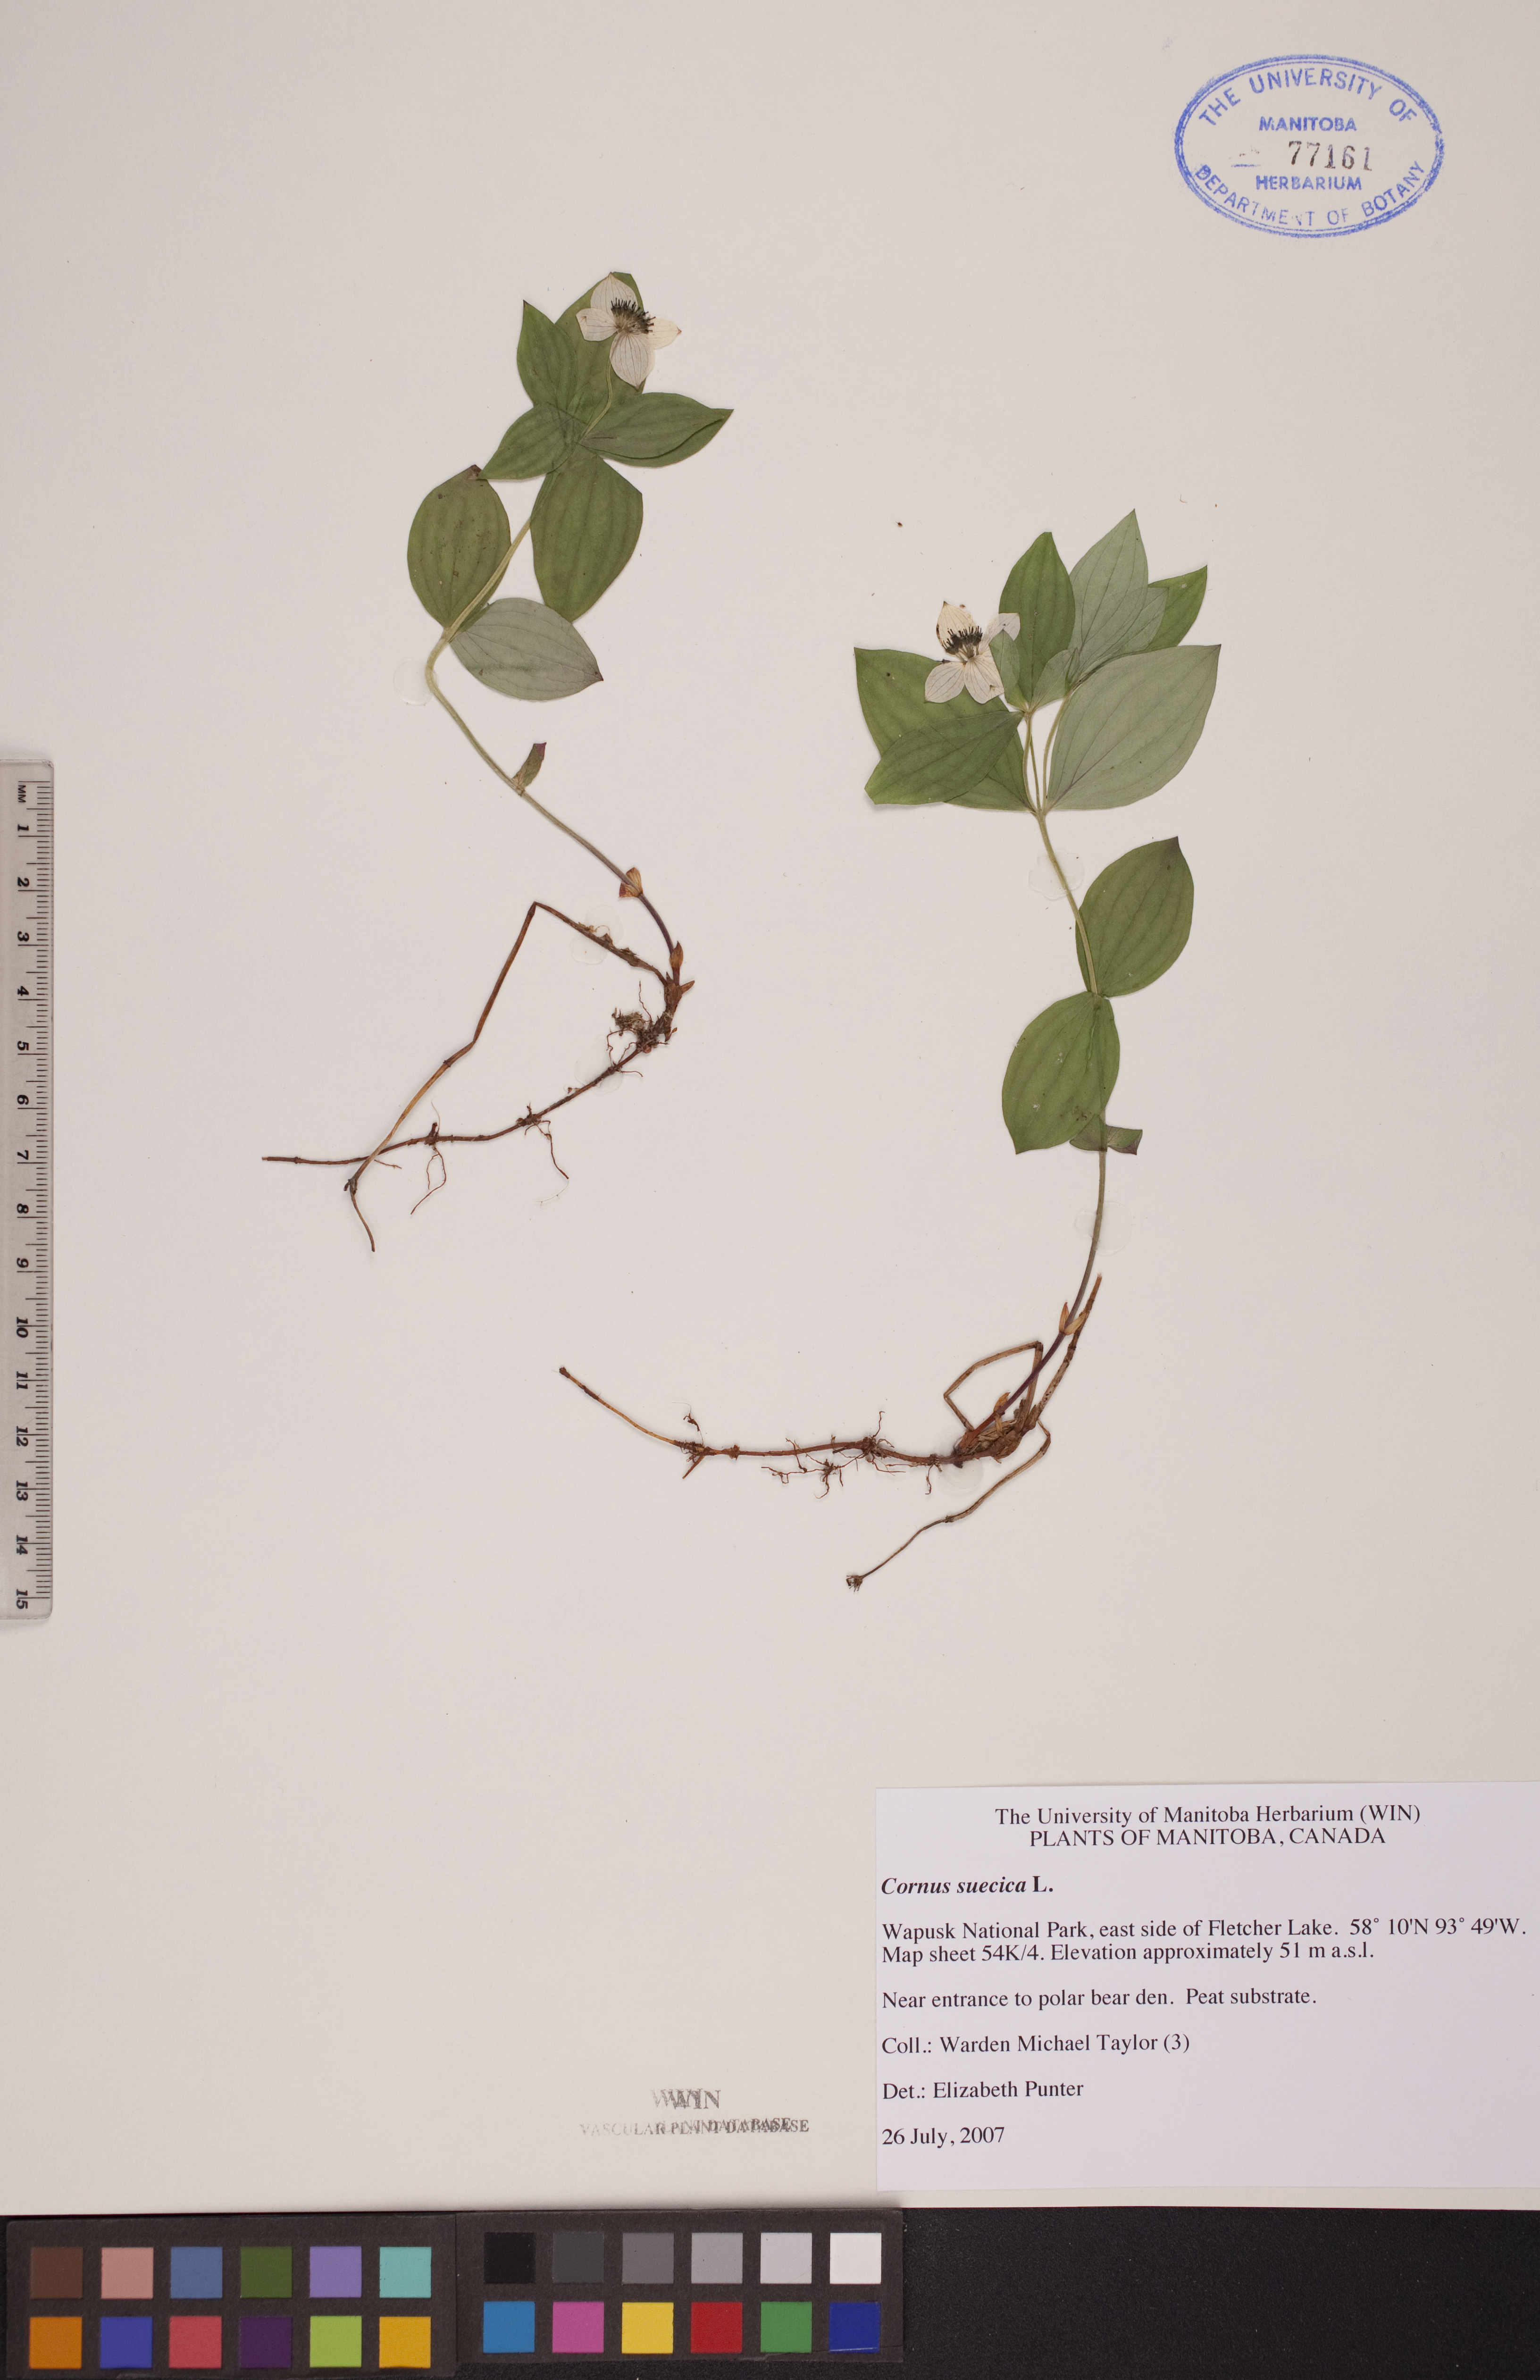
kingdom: Plantae
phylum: Tracheophyta
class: Magnoliopsida
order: Cornales
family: Cornaceae
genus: Cornus
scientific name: Cornus suecica
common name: Dwarf cornel
